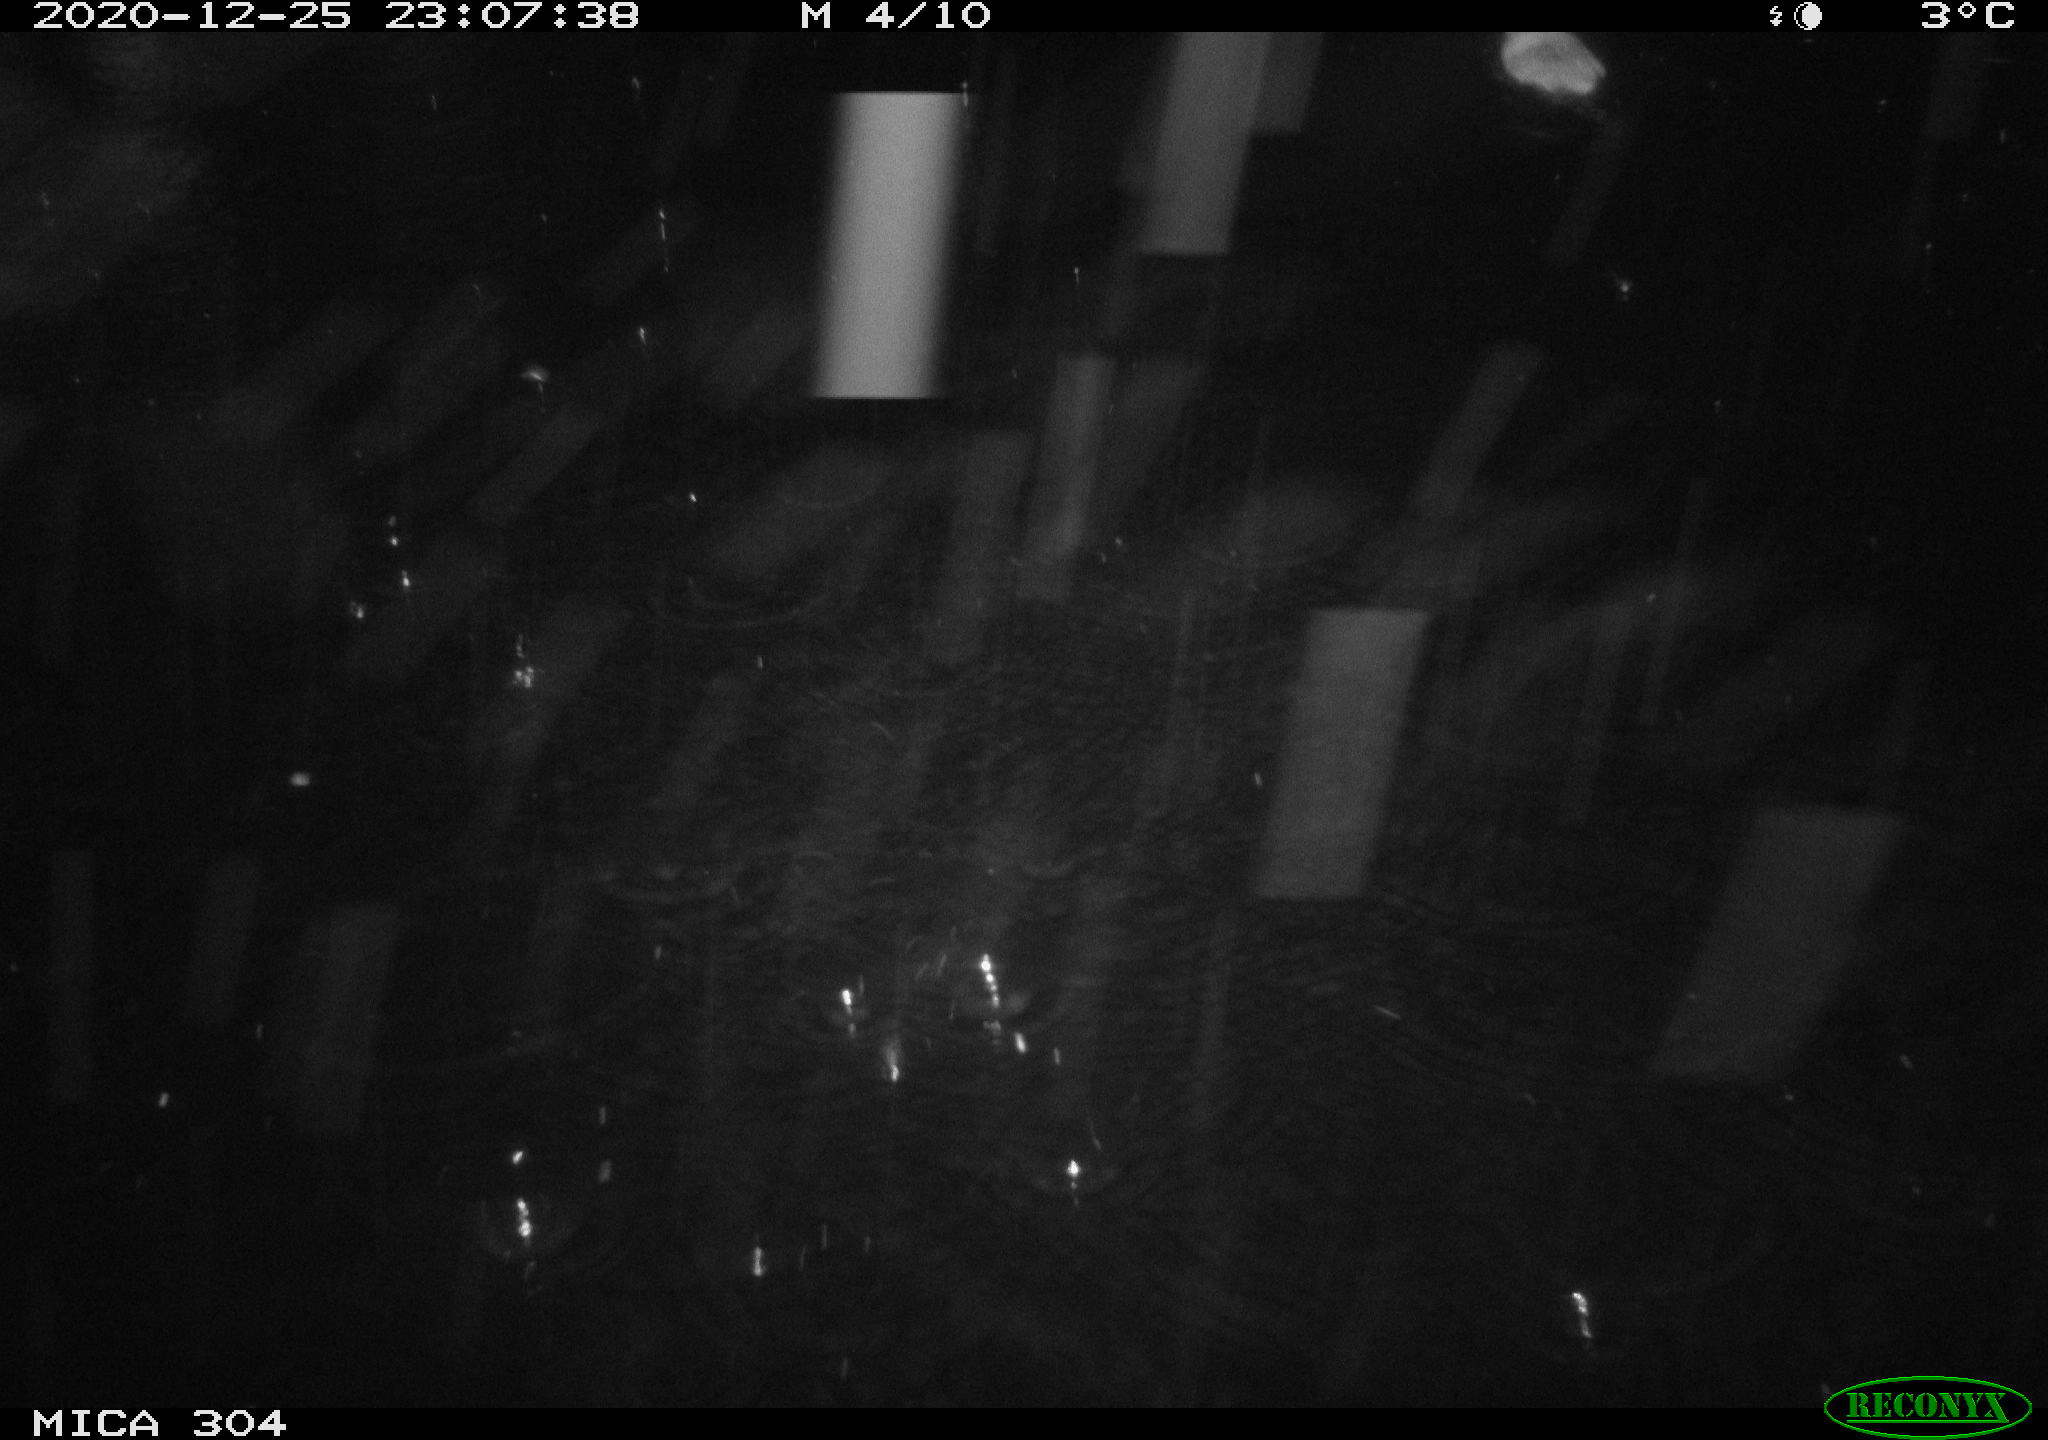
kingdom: Animalia
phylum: Chordata
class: Mammalia
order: Rodentia
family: Muridae
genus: Rattus
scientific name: Rattus norvegicus
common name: Brown rat
